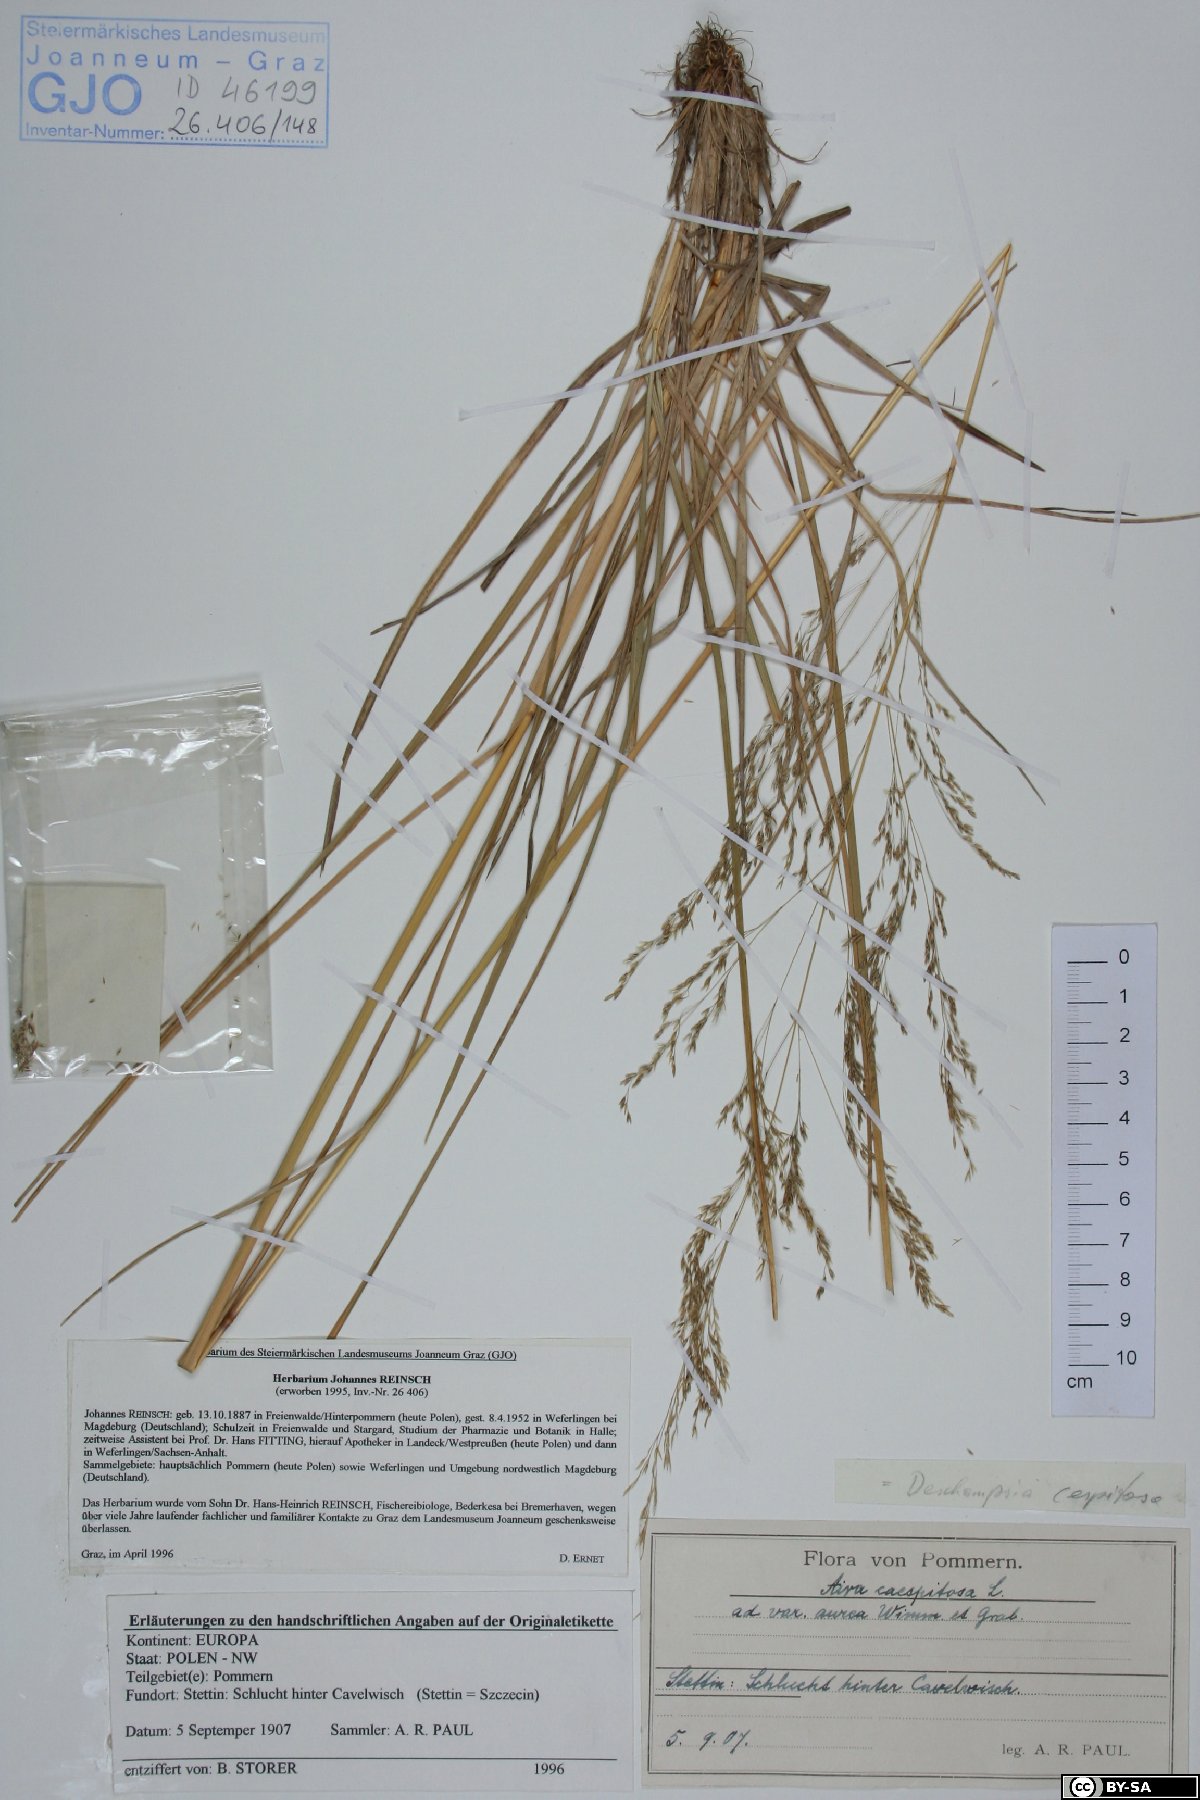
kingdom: Plantae
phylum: Tracheophyta
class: Liliopsida
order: Poales
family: Poaceae
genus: Deschampsia
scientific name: Deschampsia cespitosa
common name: Tufted hair-grass
